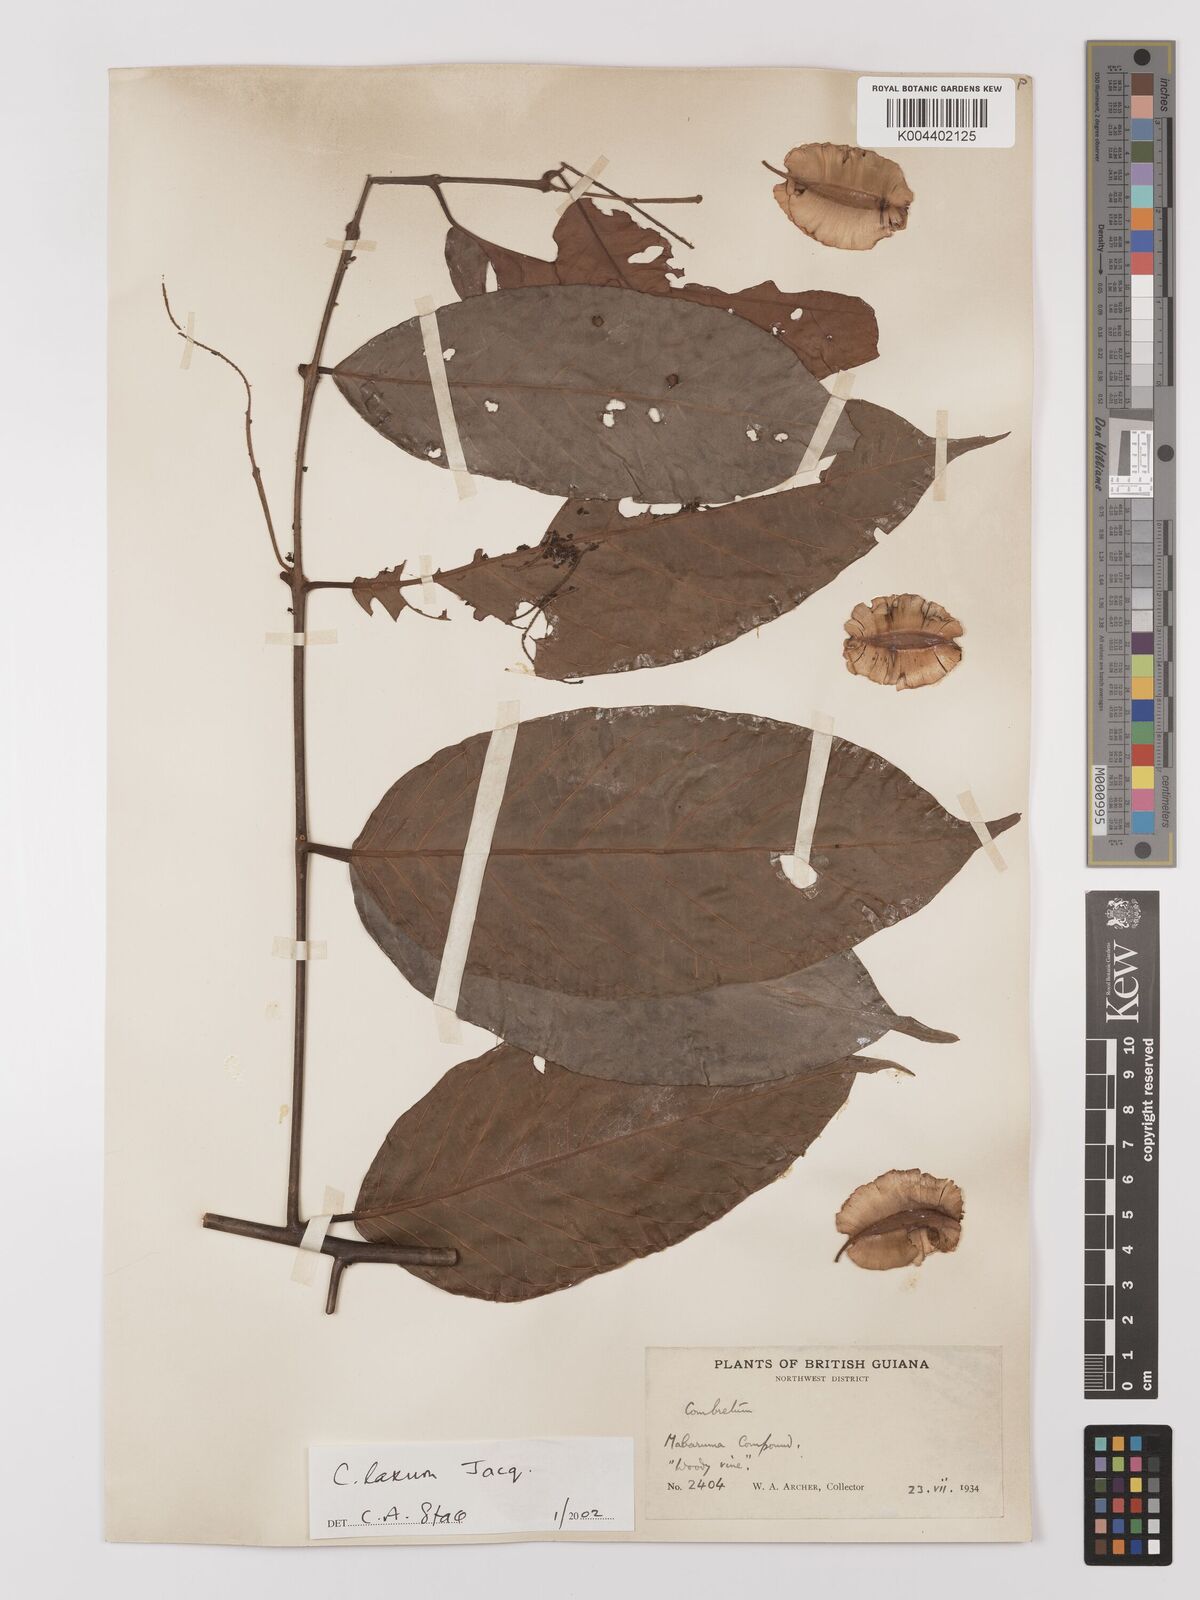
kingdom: Plantae
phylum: Tracheophyta
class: Magnoliopsida
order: Myrtales
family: Combretaceae
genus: Combretum
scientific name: Combretum
